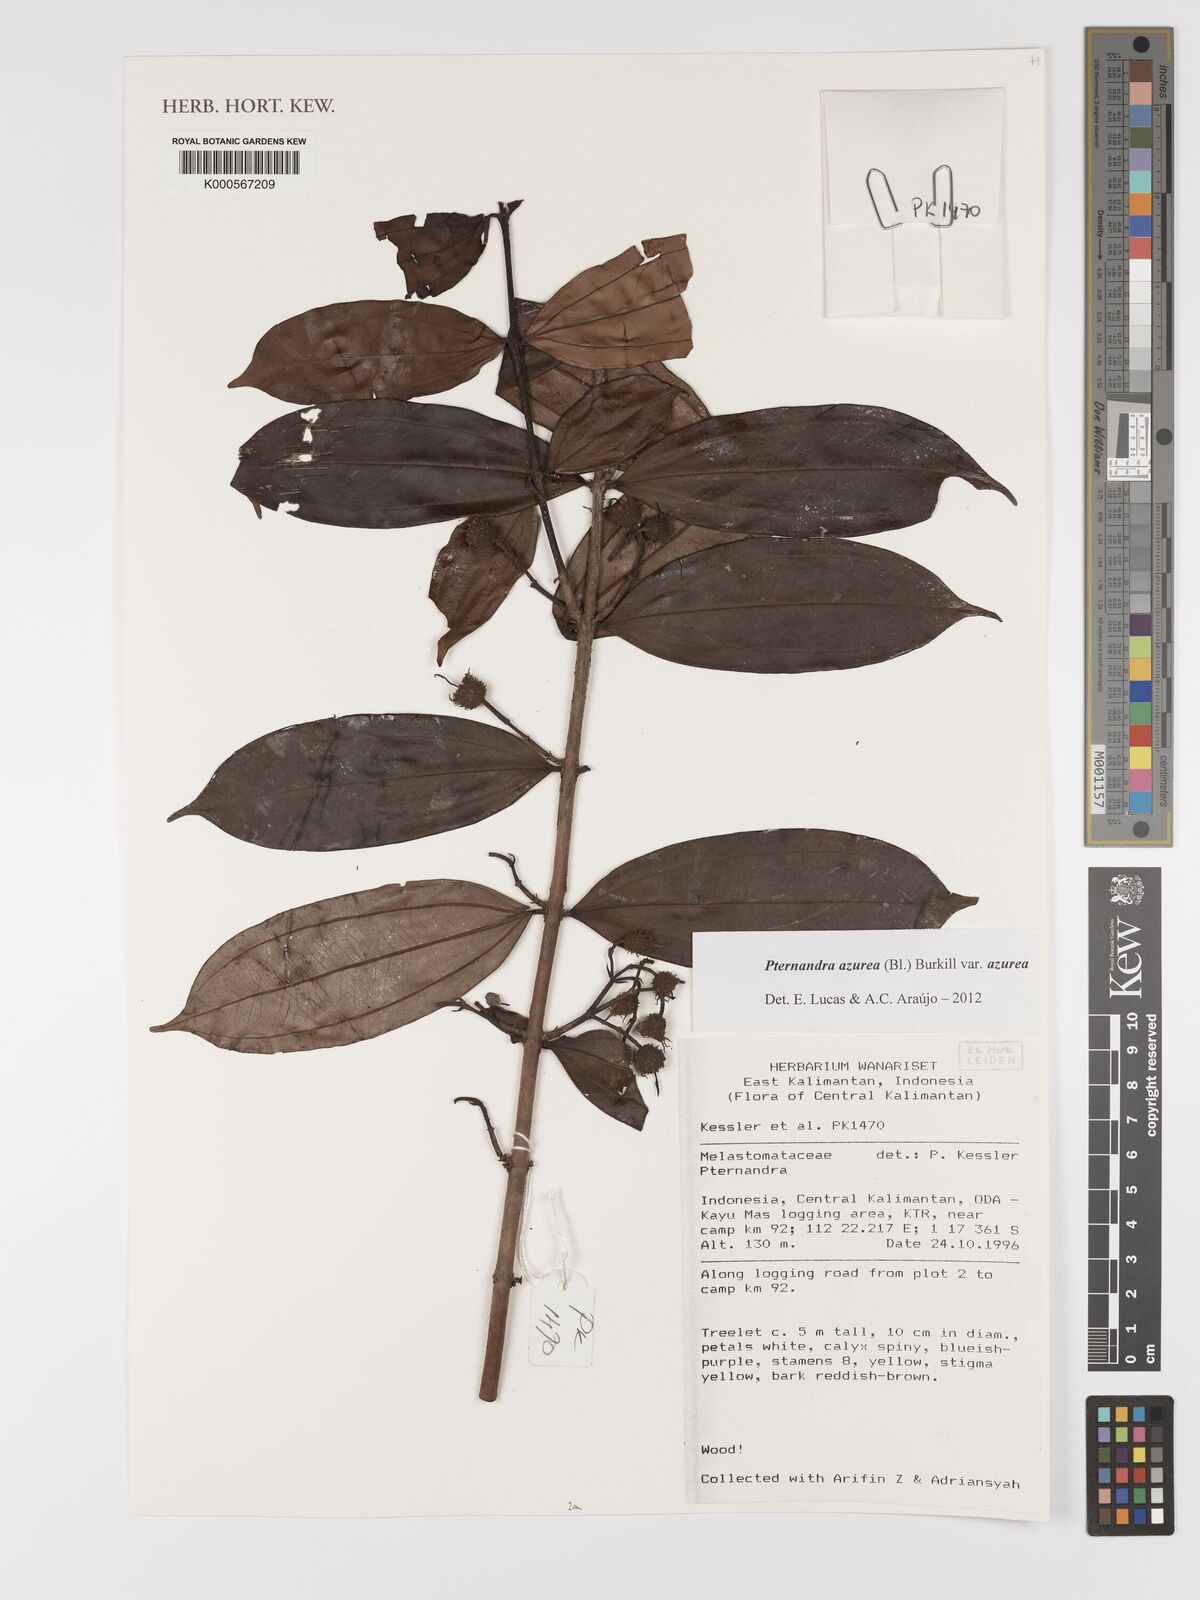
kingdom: Plantae
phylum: Tracheophyta
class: Magnoliopsida
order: Myrtales
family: Melastomataceae
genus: Pternandra
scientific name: Pternandra azurea
